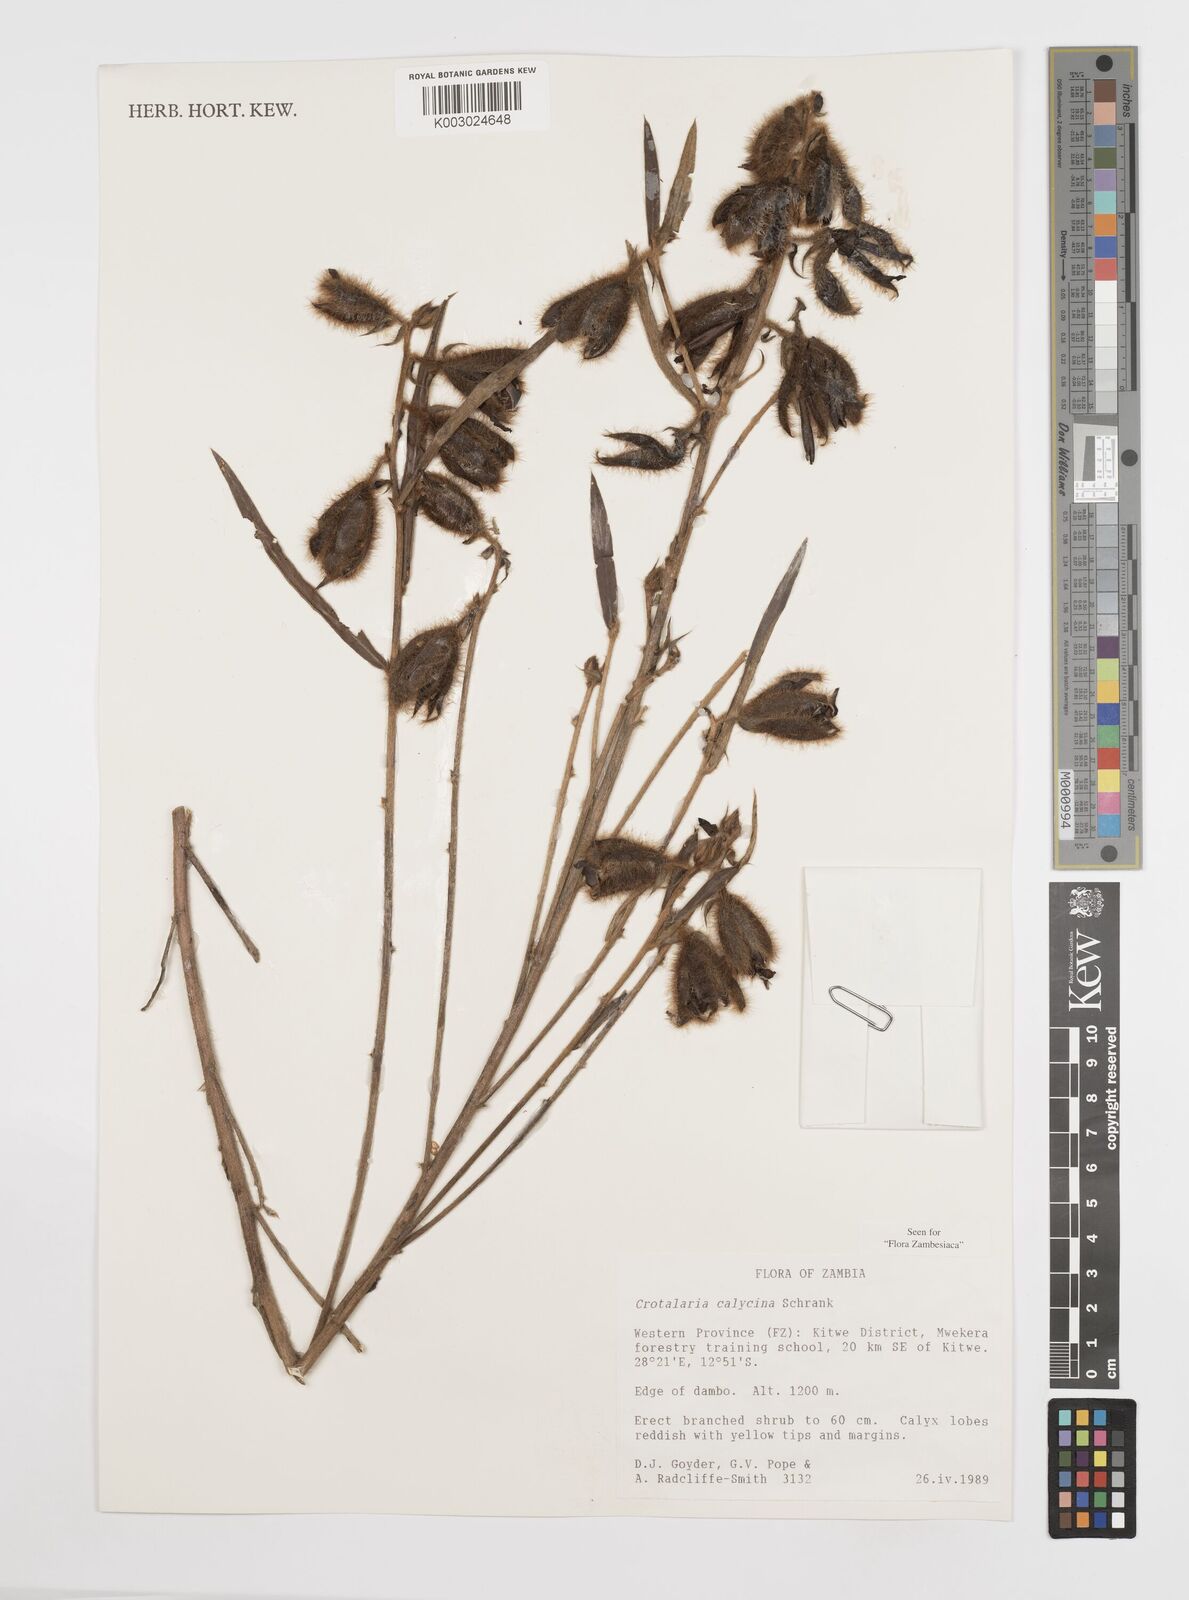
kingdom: Plantae
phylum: Tracheophyta
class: Magnoliopsida
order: Fabales
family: Fabaceae
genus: Crotalaria
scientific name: Crotalaria calycina
